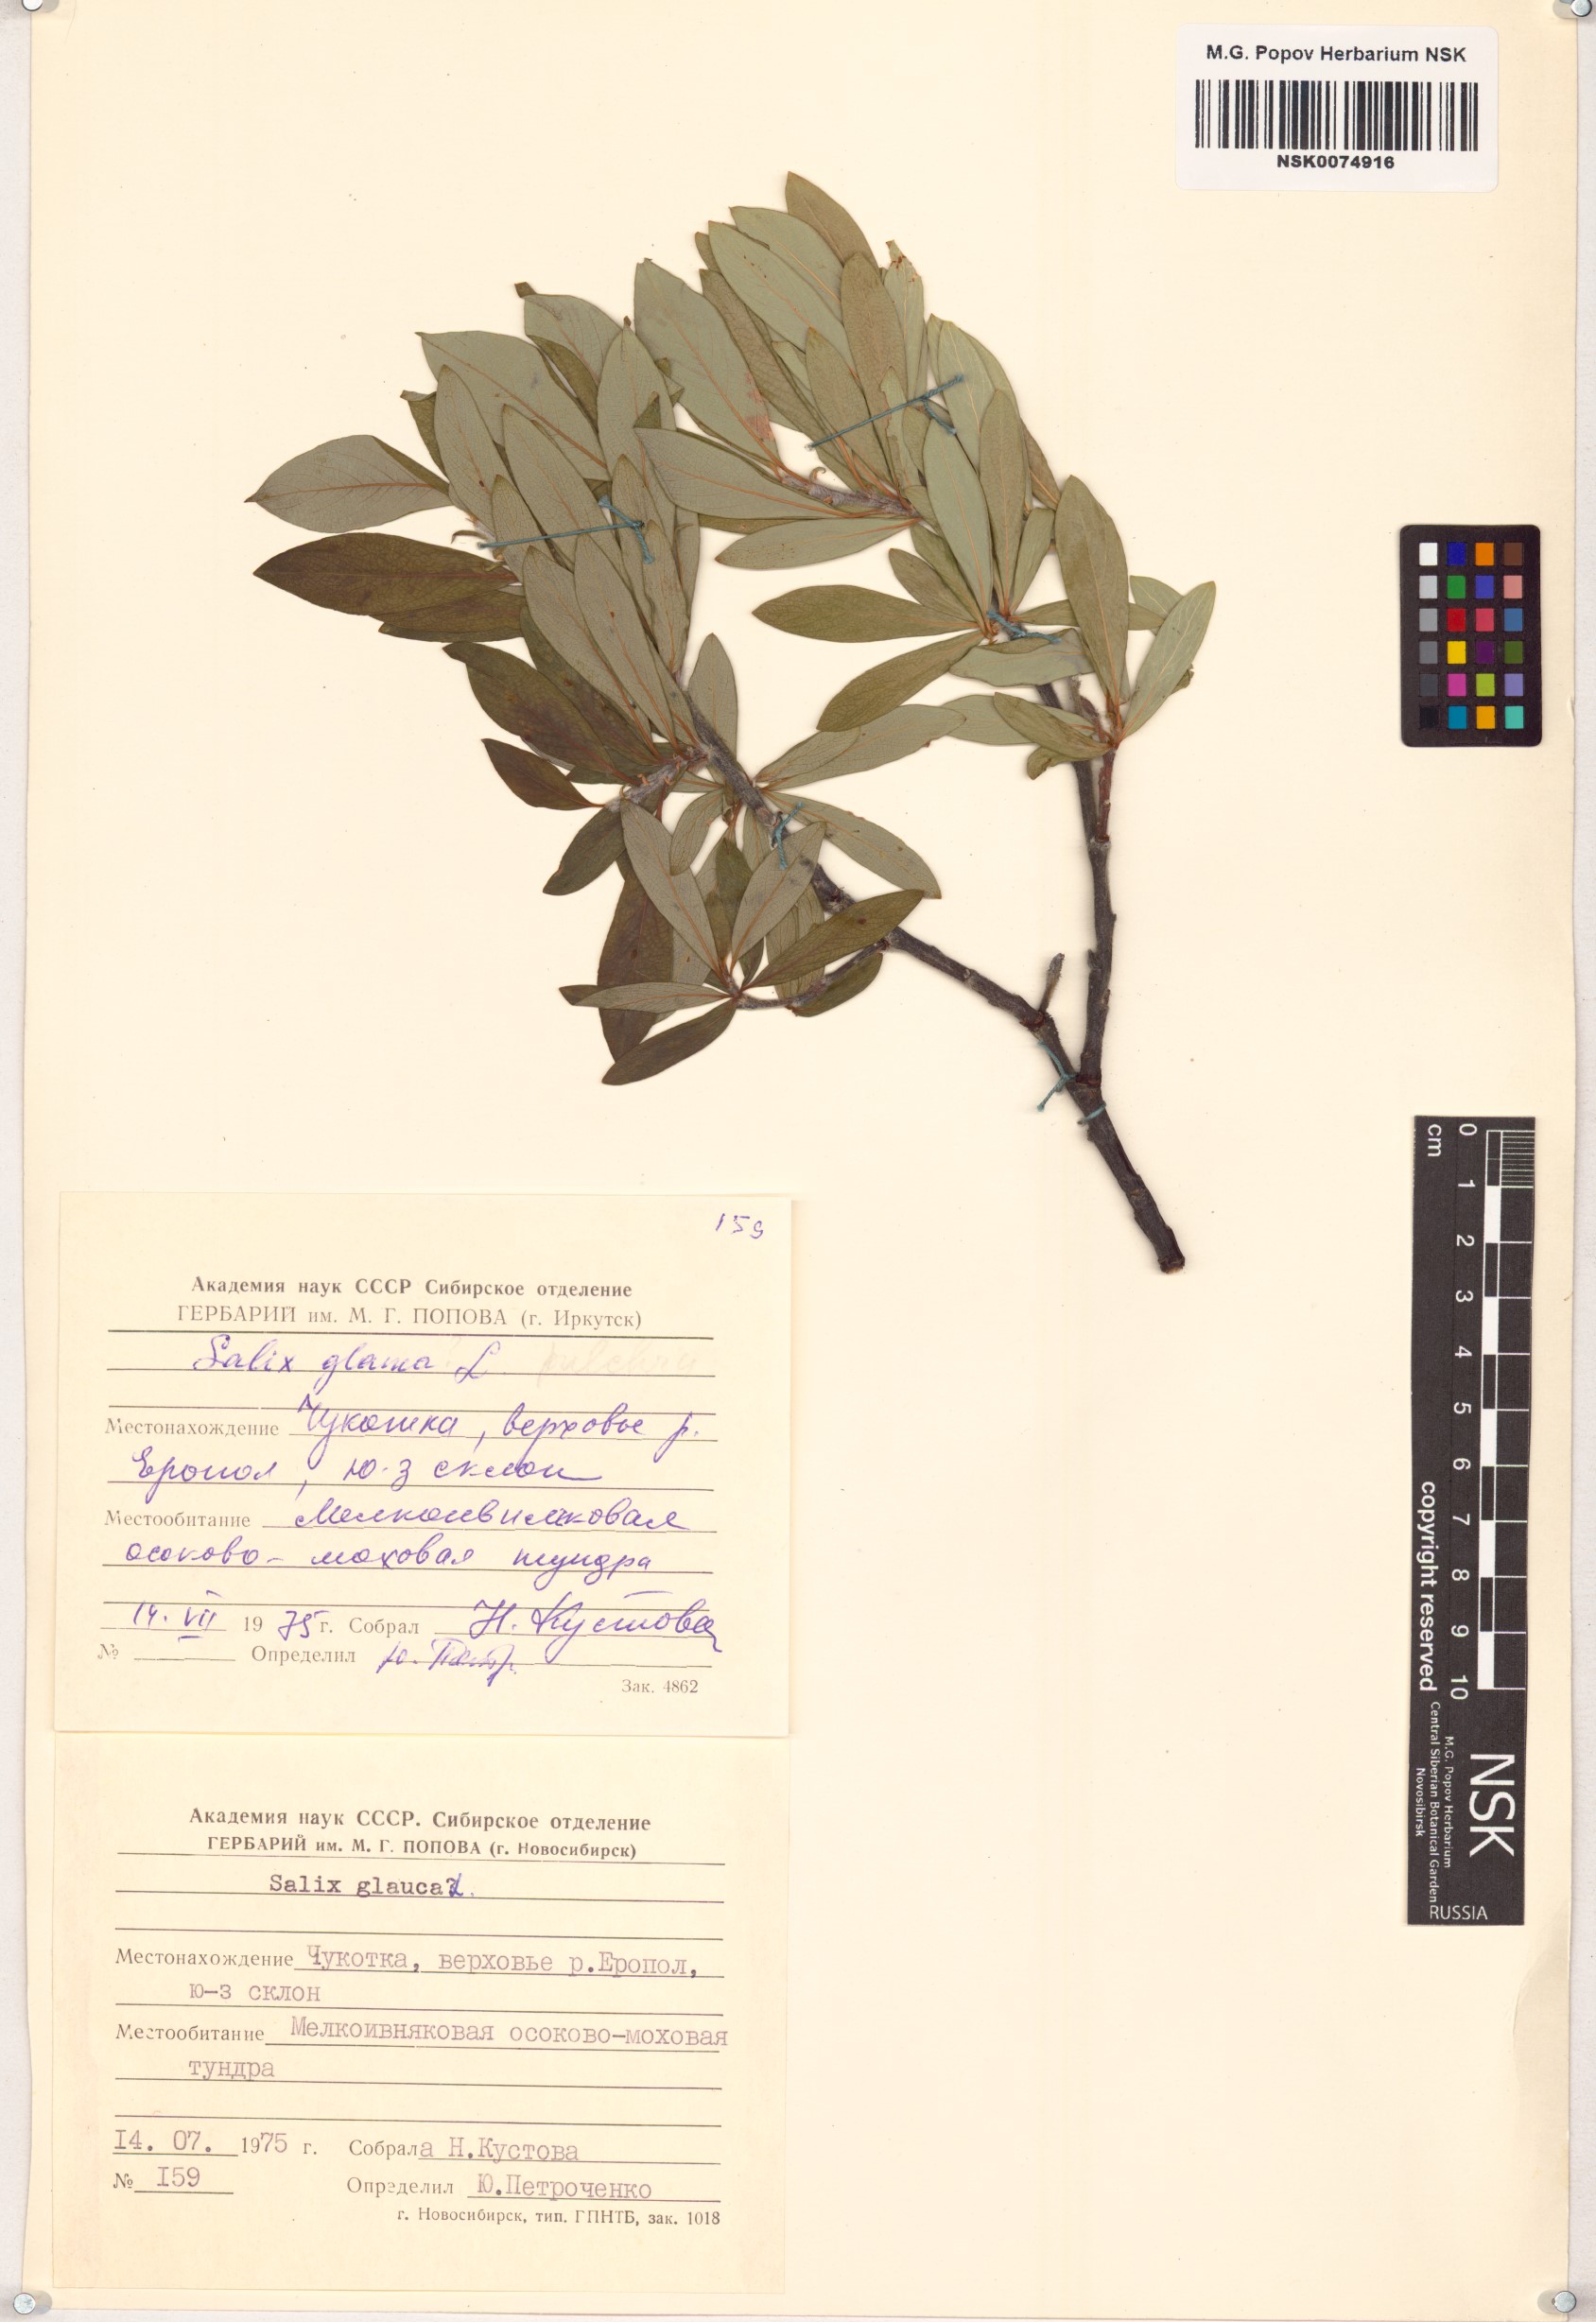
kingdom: Plantae
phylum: Tracheophyta
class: Magnoliopsida
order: Malpighiales
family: Salicaceae
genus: Salix
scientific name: Salix glauca
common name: Glaucous willow
